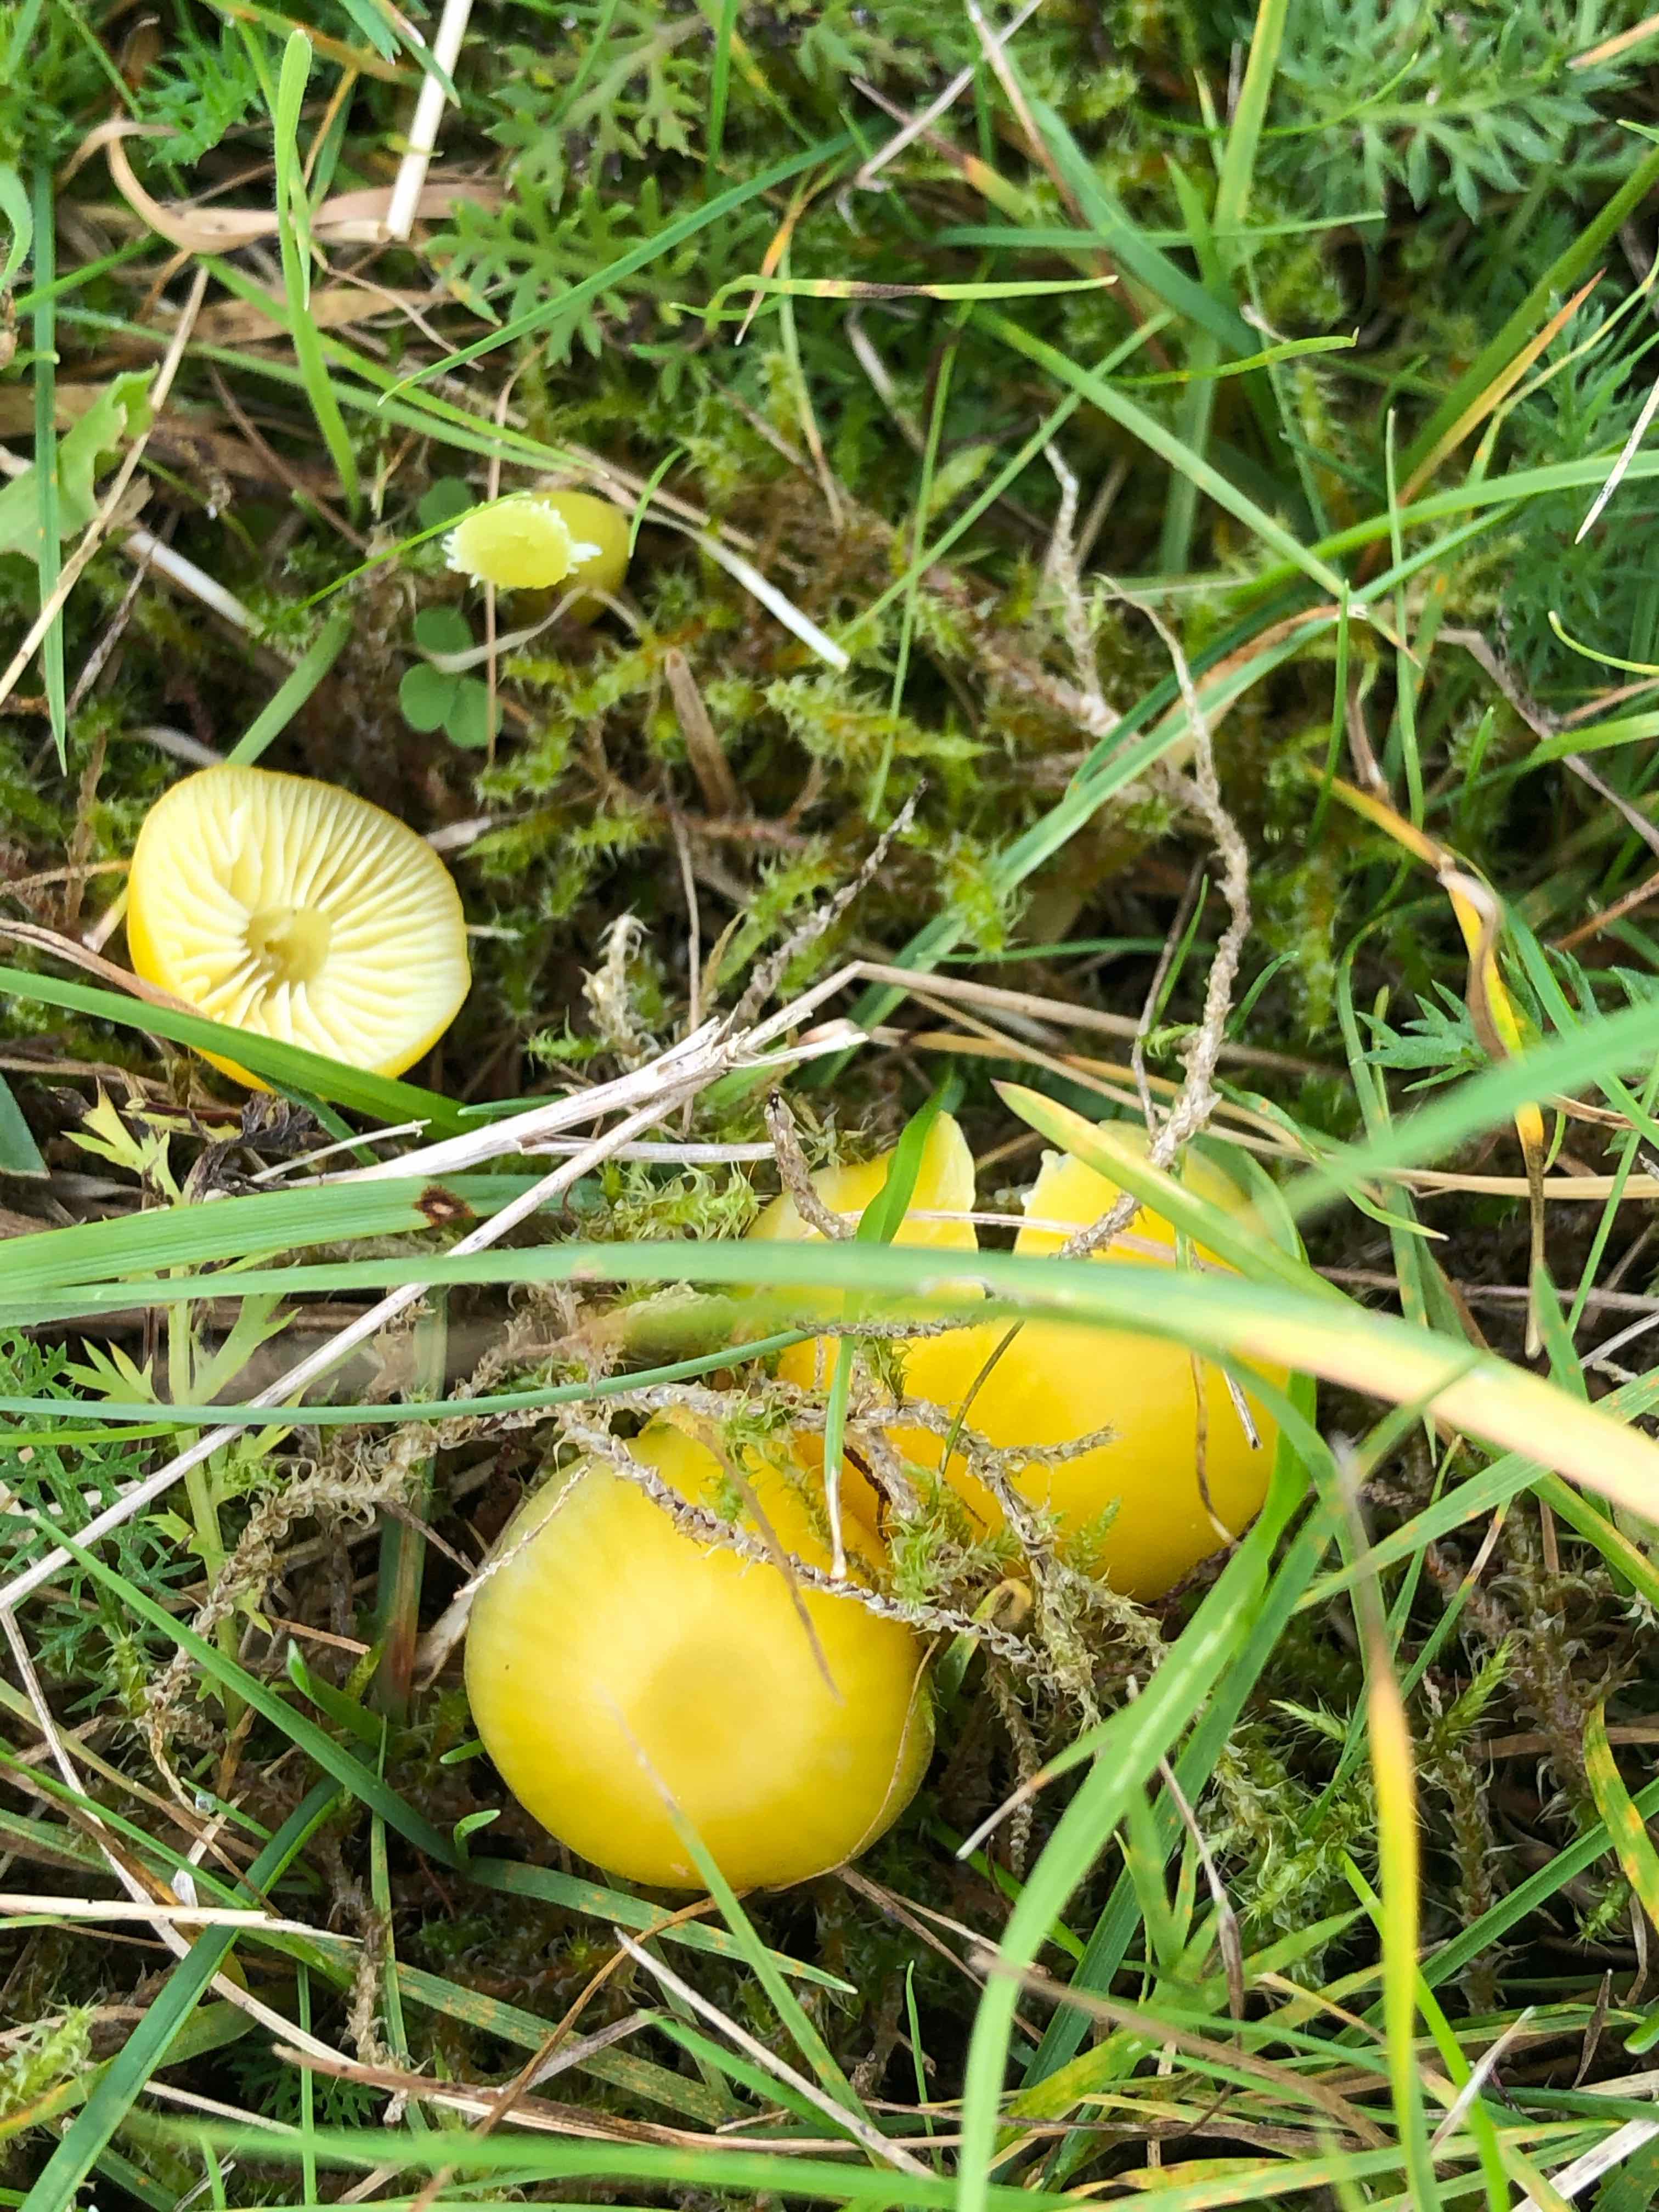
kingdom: Fungi
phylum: Basidiomycota
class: Agaricomycetes
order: Agaricales
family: Hygrophoraceae
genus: Hygrocybe
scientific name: Hygrocybe chlorophana
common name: gul vokshat
